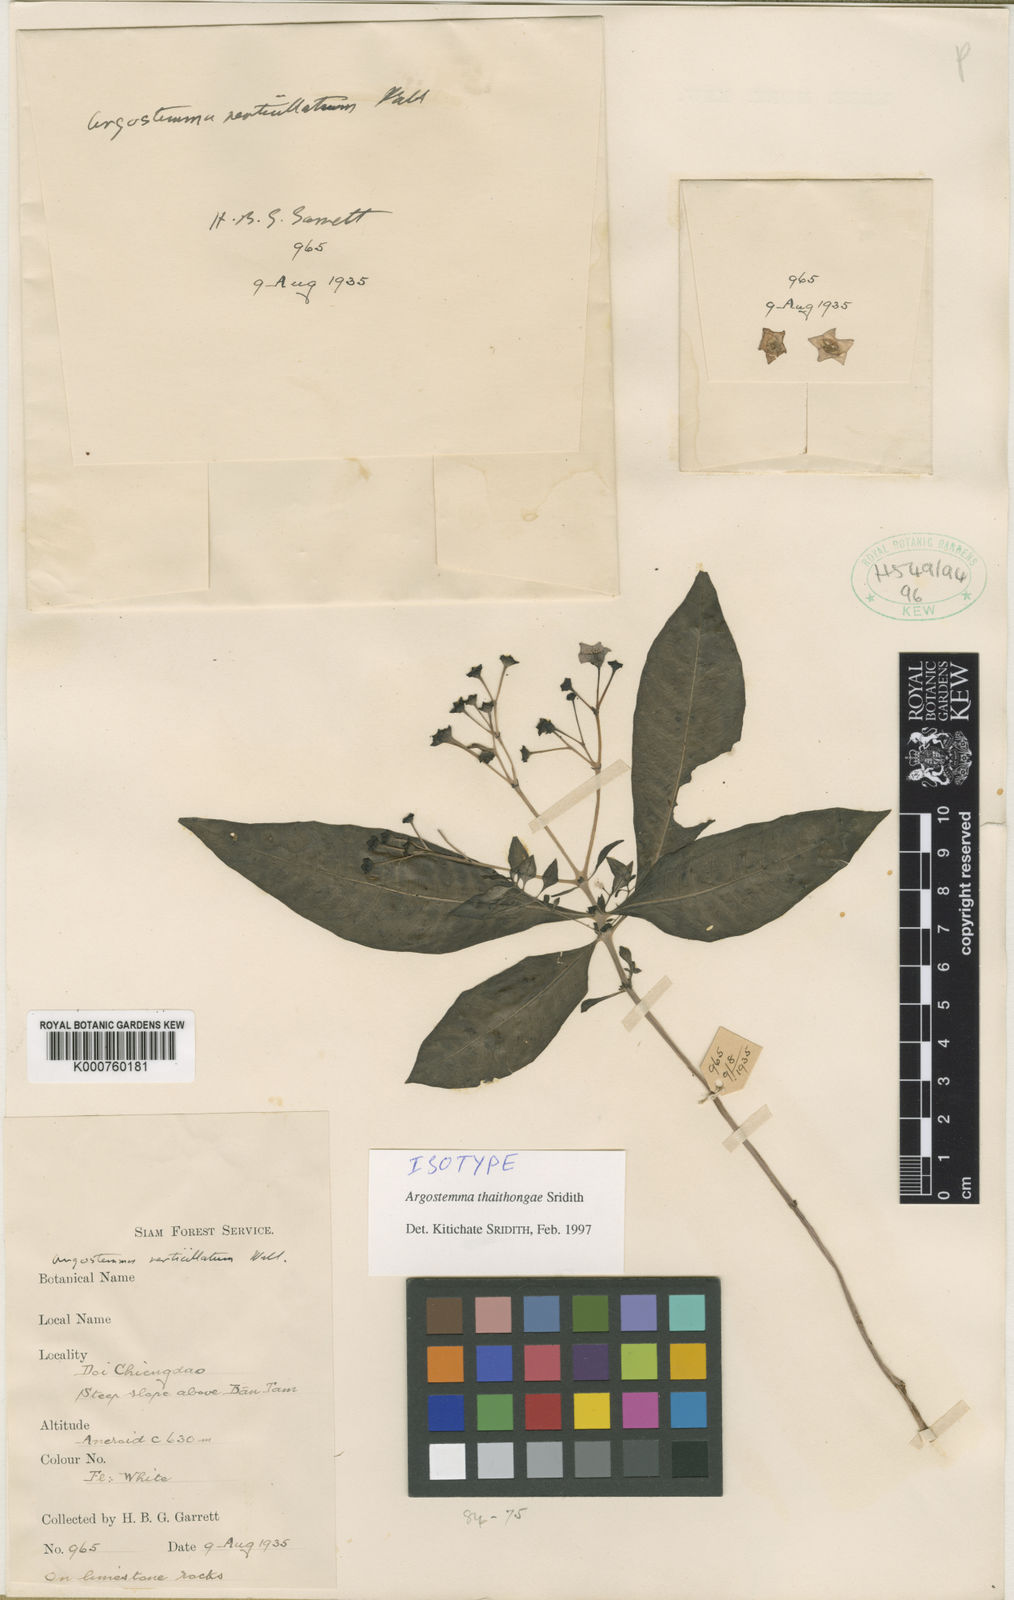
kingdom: Plantae
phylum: Tracheophyta
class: Magnoliopsida
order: Gentianales
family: Rubiaceae
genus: Argostemma
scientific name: Argostemma thaithongae
